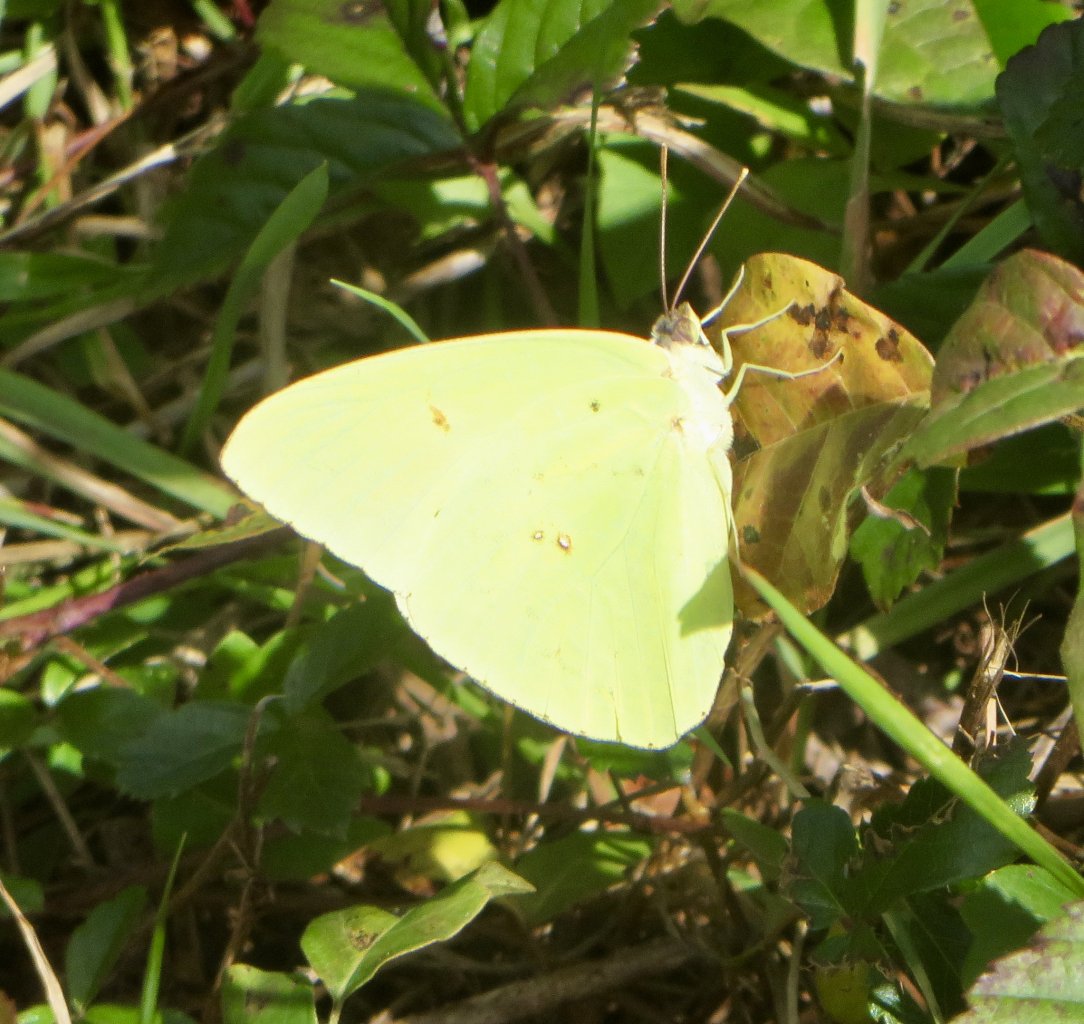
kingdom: Animalia
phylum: Arthropoda
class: Insecta
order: Lepidoptera
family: Pieridae
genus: Phoebis
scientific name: Phoebis sennae
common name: Cloudless Sulphur
